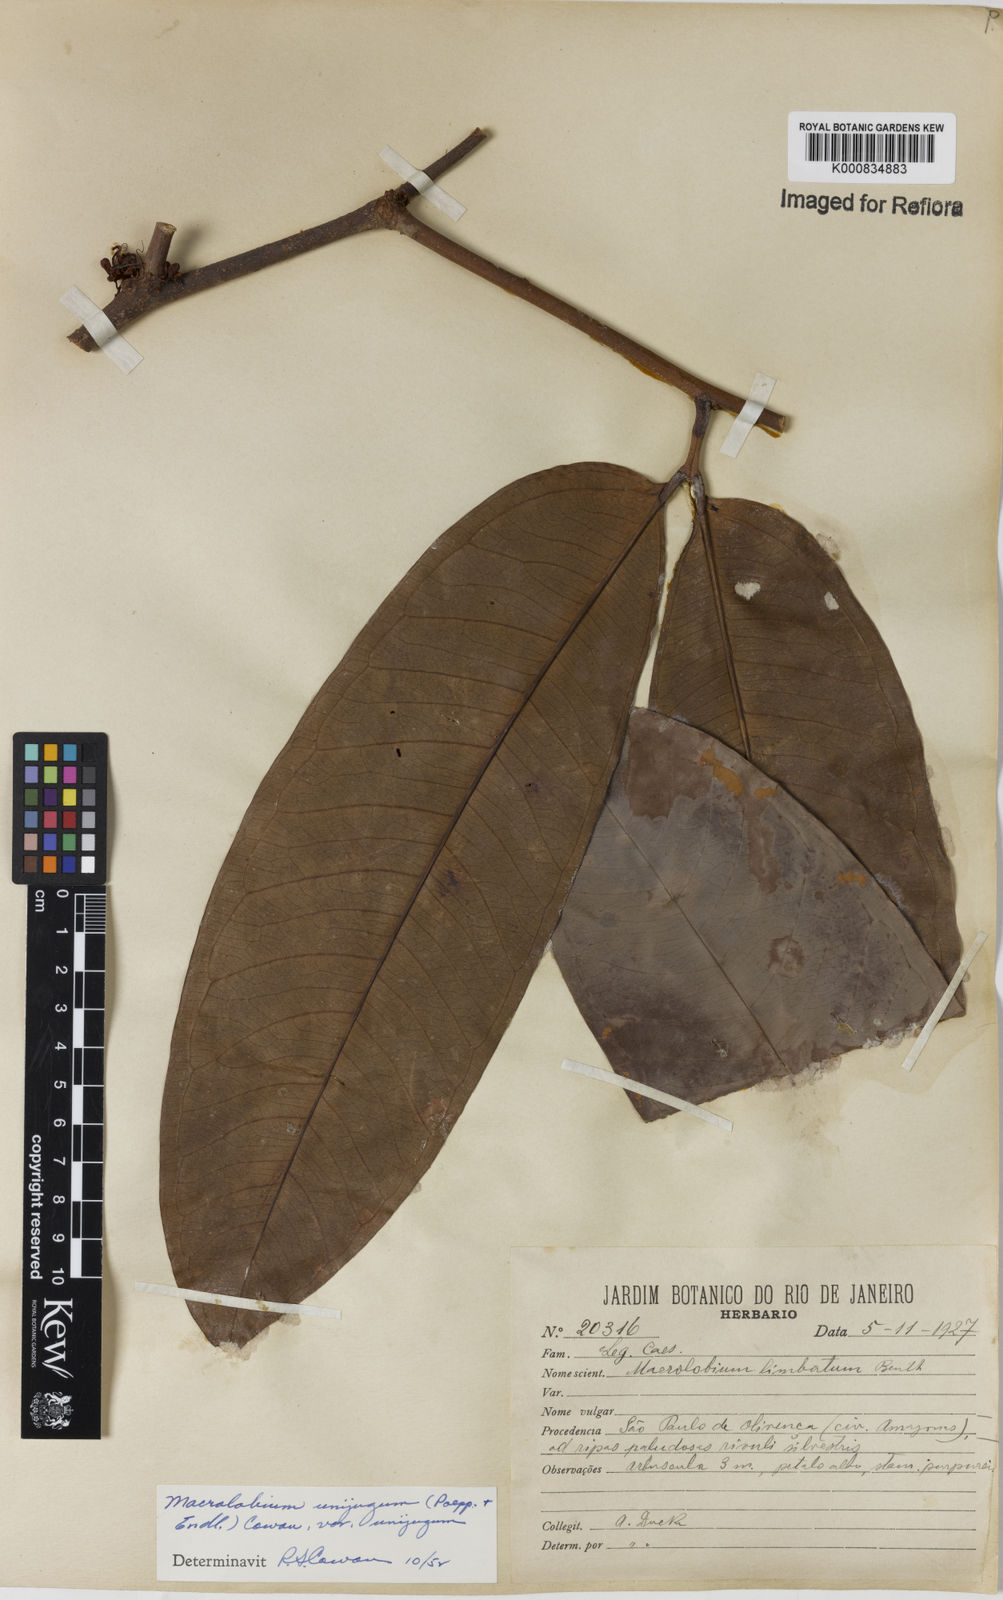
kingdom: Plantae
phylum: Tracheophyta
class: Magnoliopsida
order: Fabales
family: Fabaceae
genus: Macrolobium
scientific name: Macrolobium limbatum
